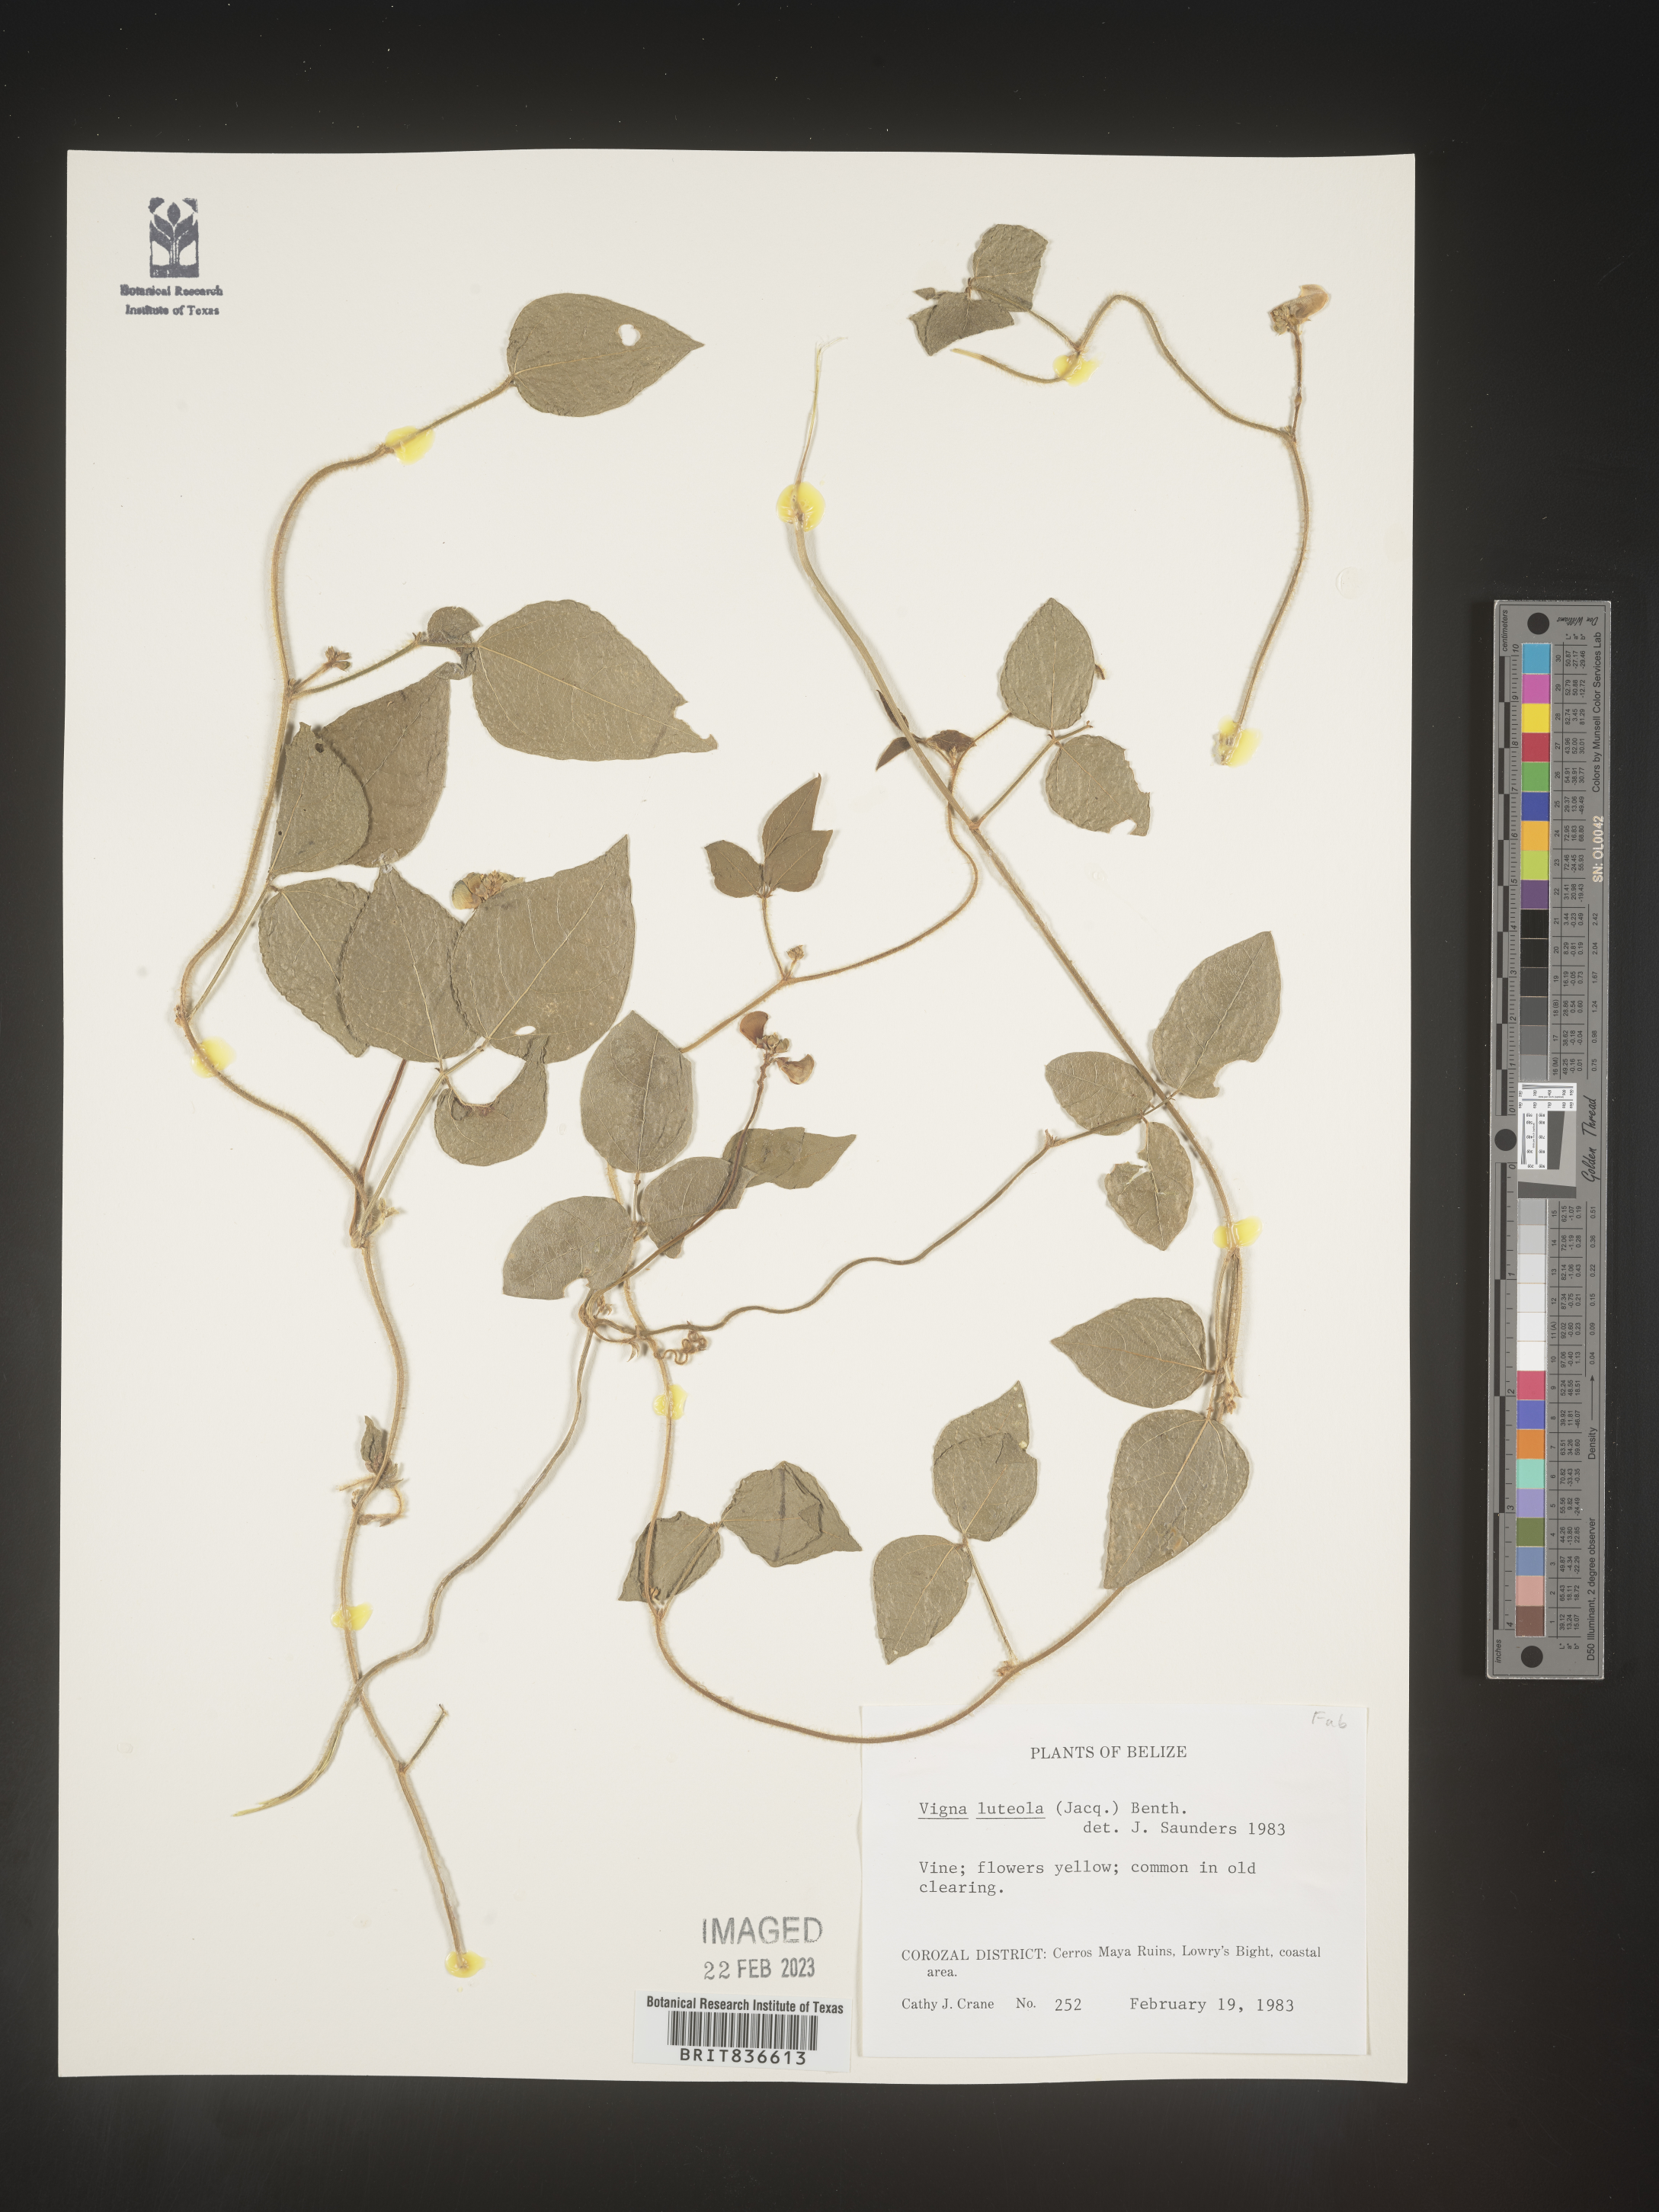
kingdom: Plantae
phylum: Tracheophyta
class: Magnoliopsida
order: Fabales
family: Fabaceae
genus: Vigna
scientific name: Vigna
